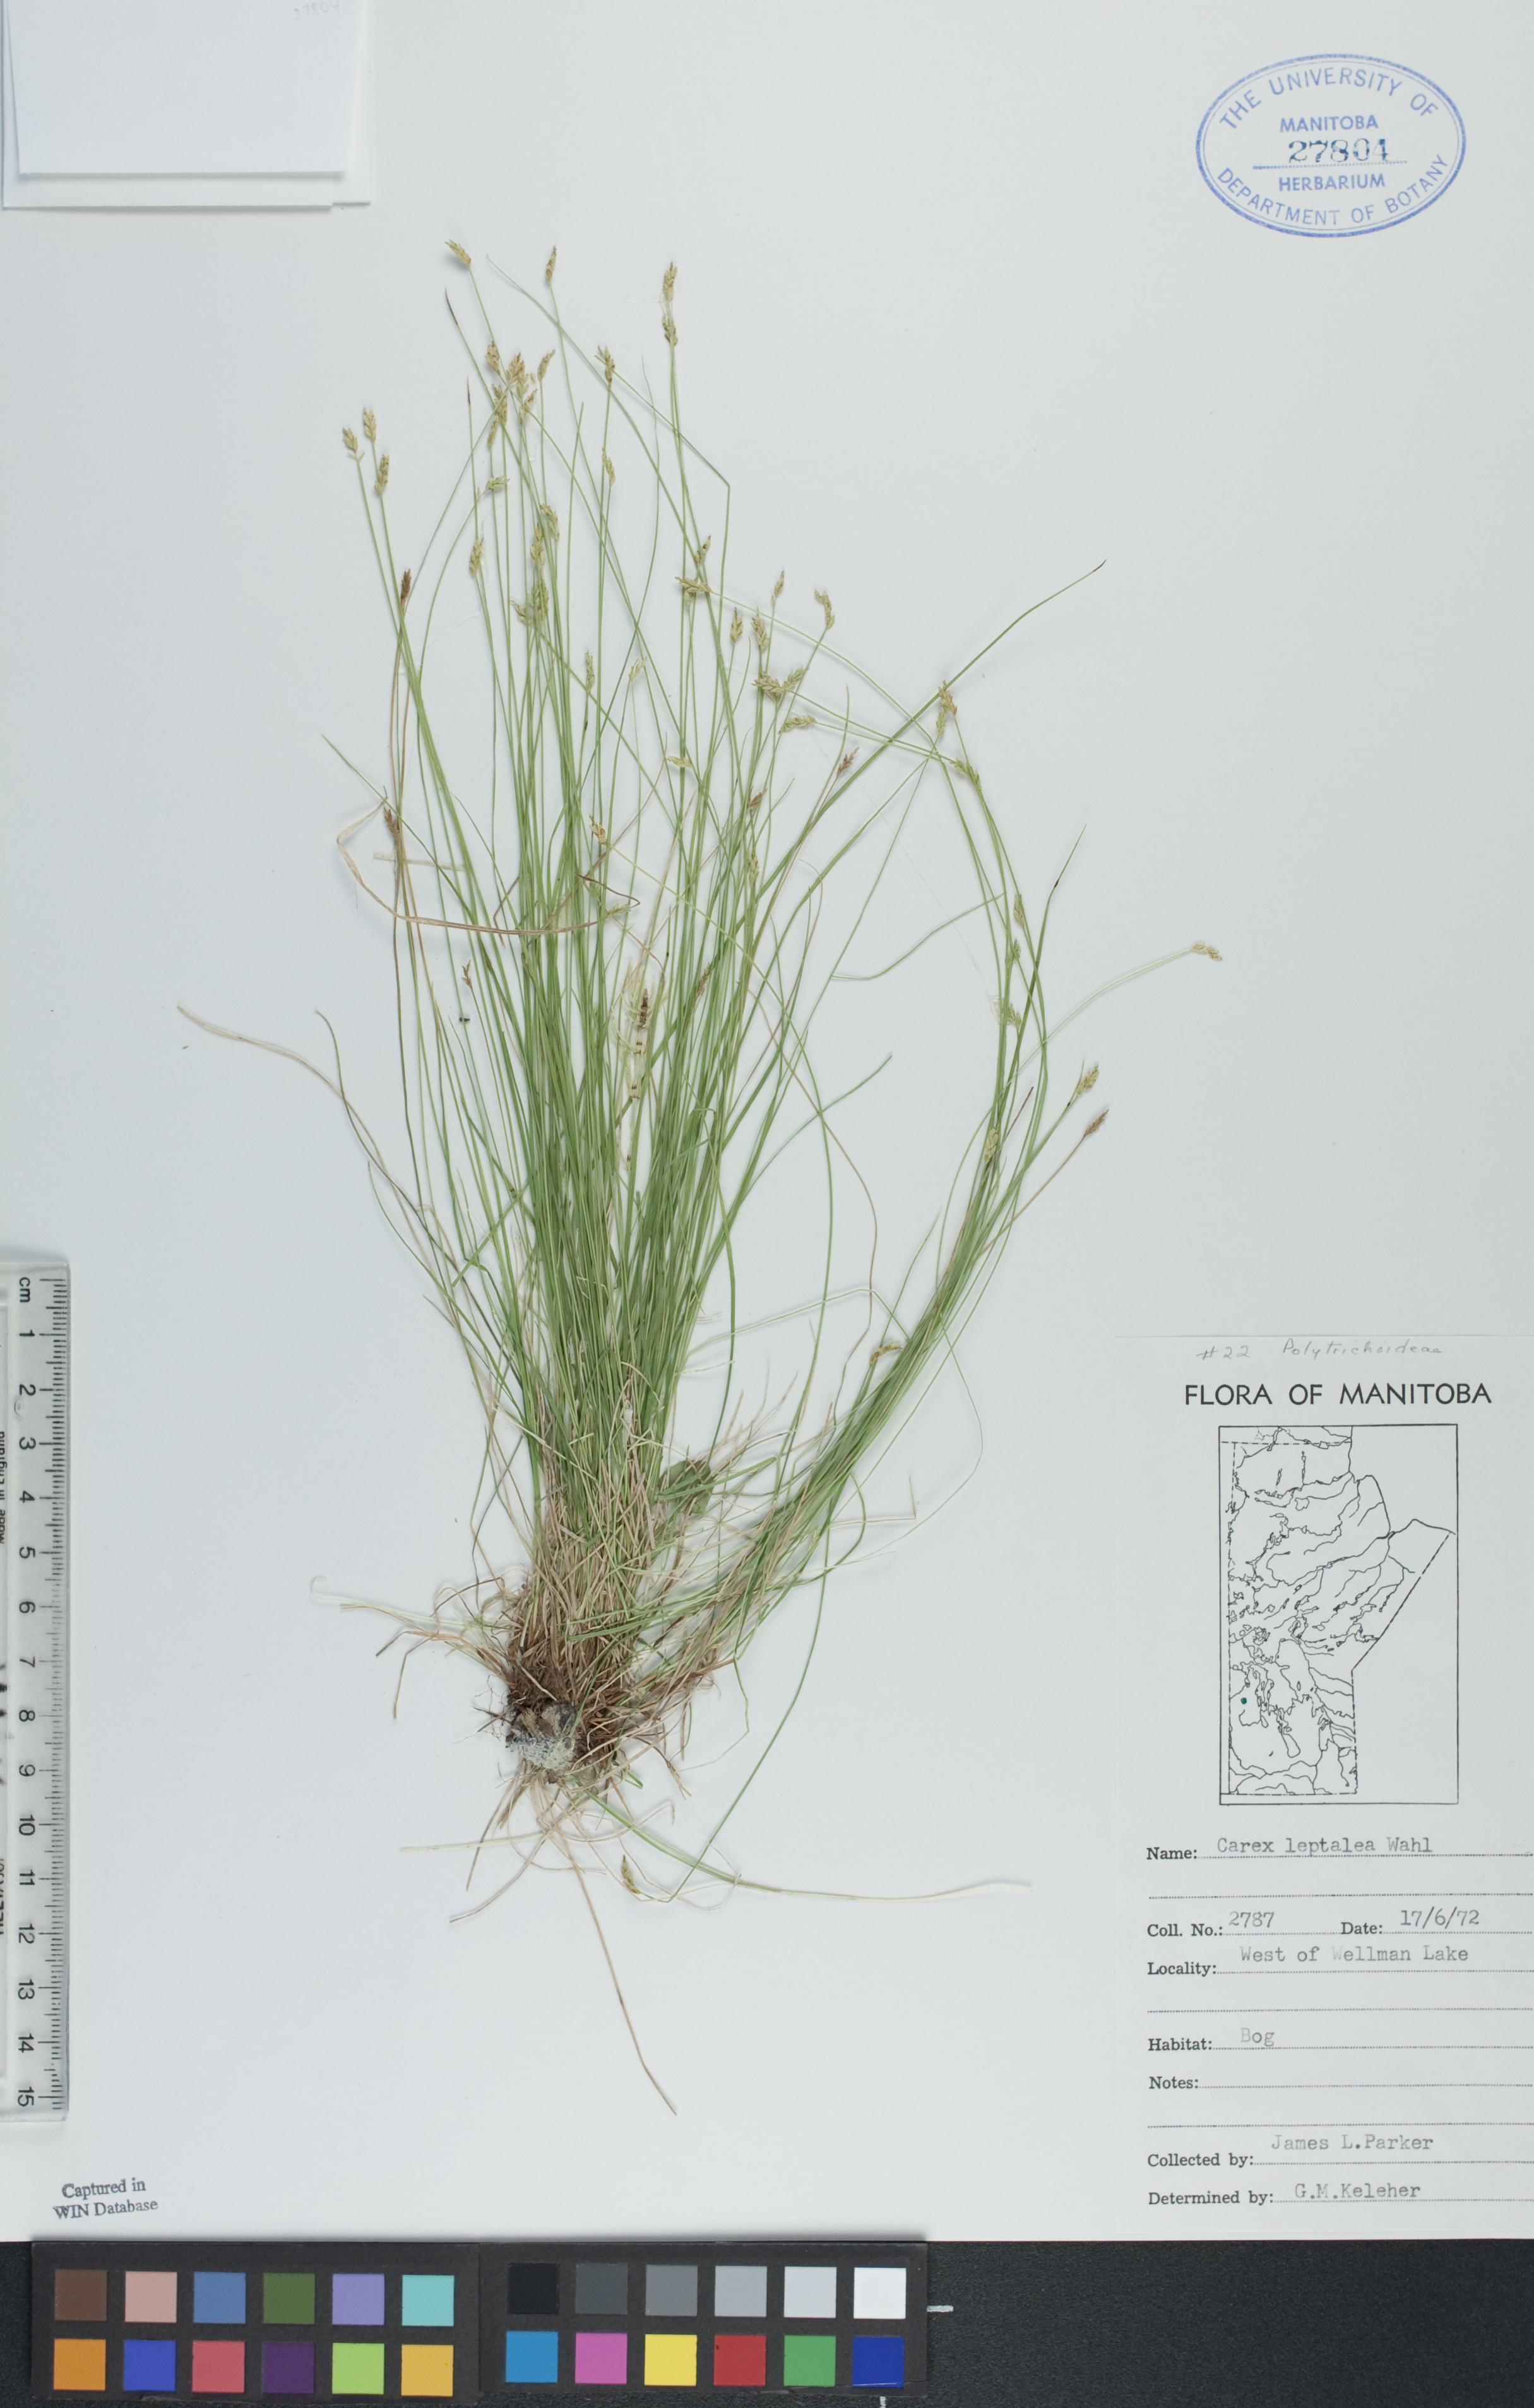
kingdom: Plantae
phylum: Tracheophyta
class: Liliopsida
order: Poales
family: Cyperaceae
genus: Carex
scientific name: Carex leptalea
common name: Bristly-stalked sedge
